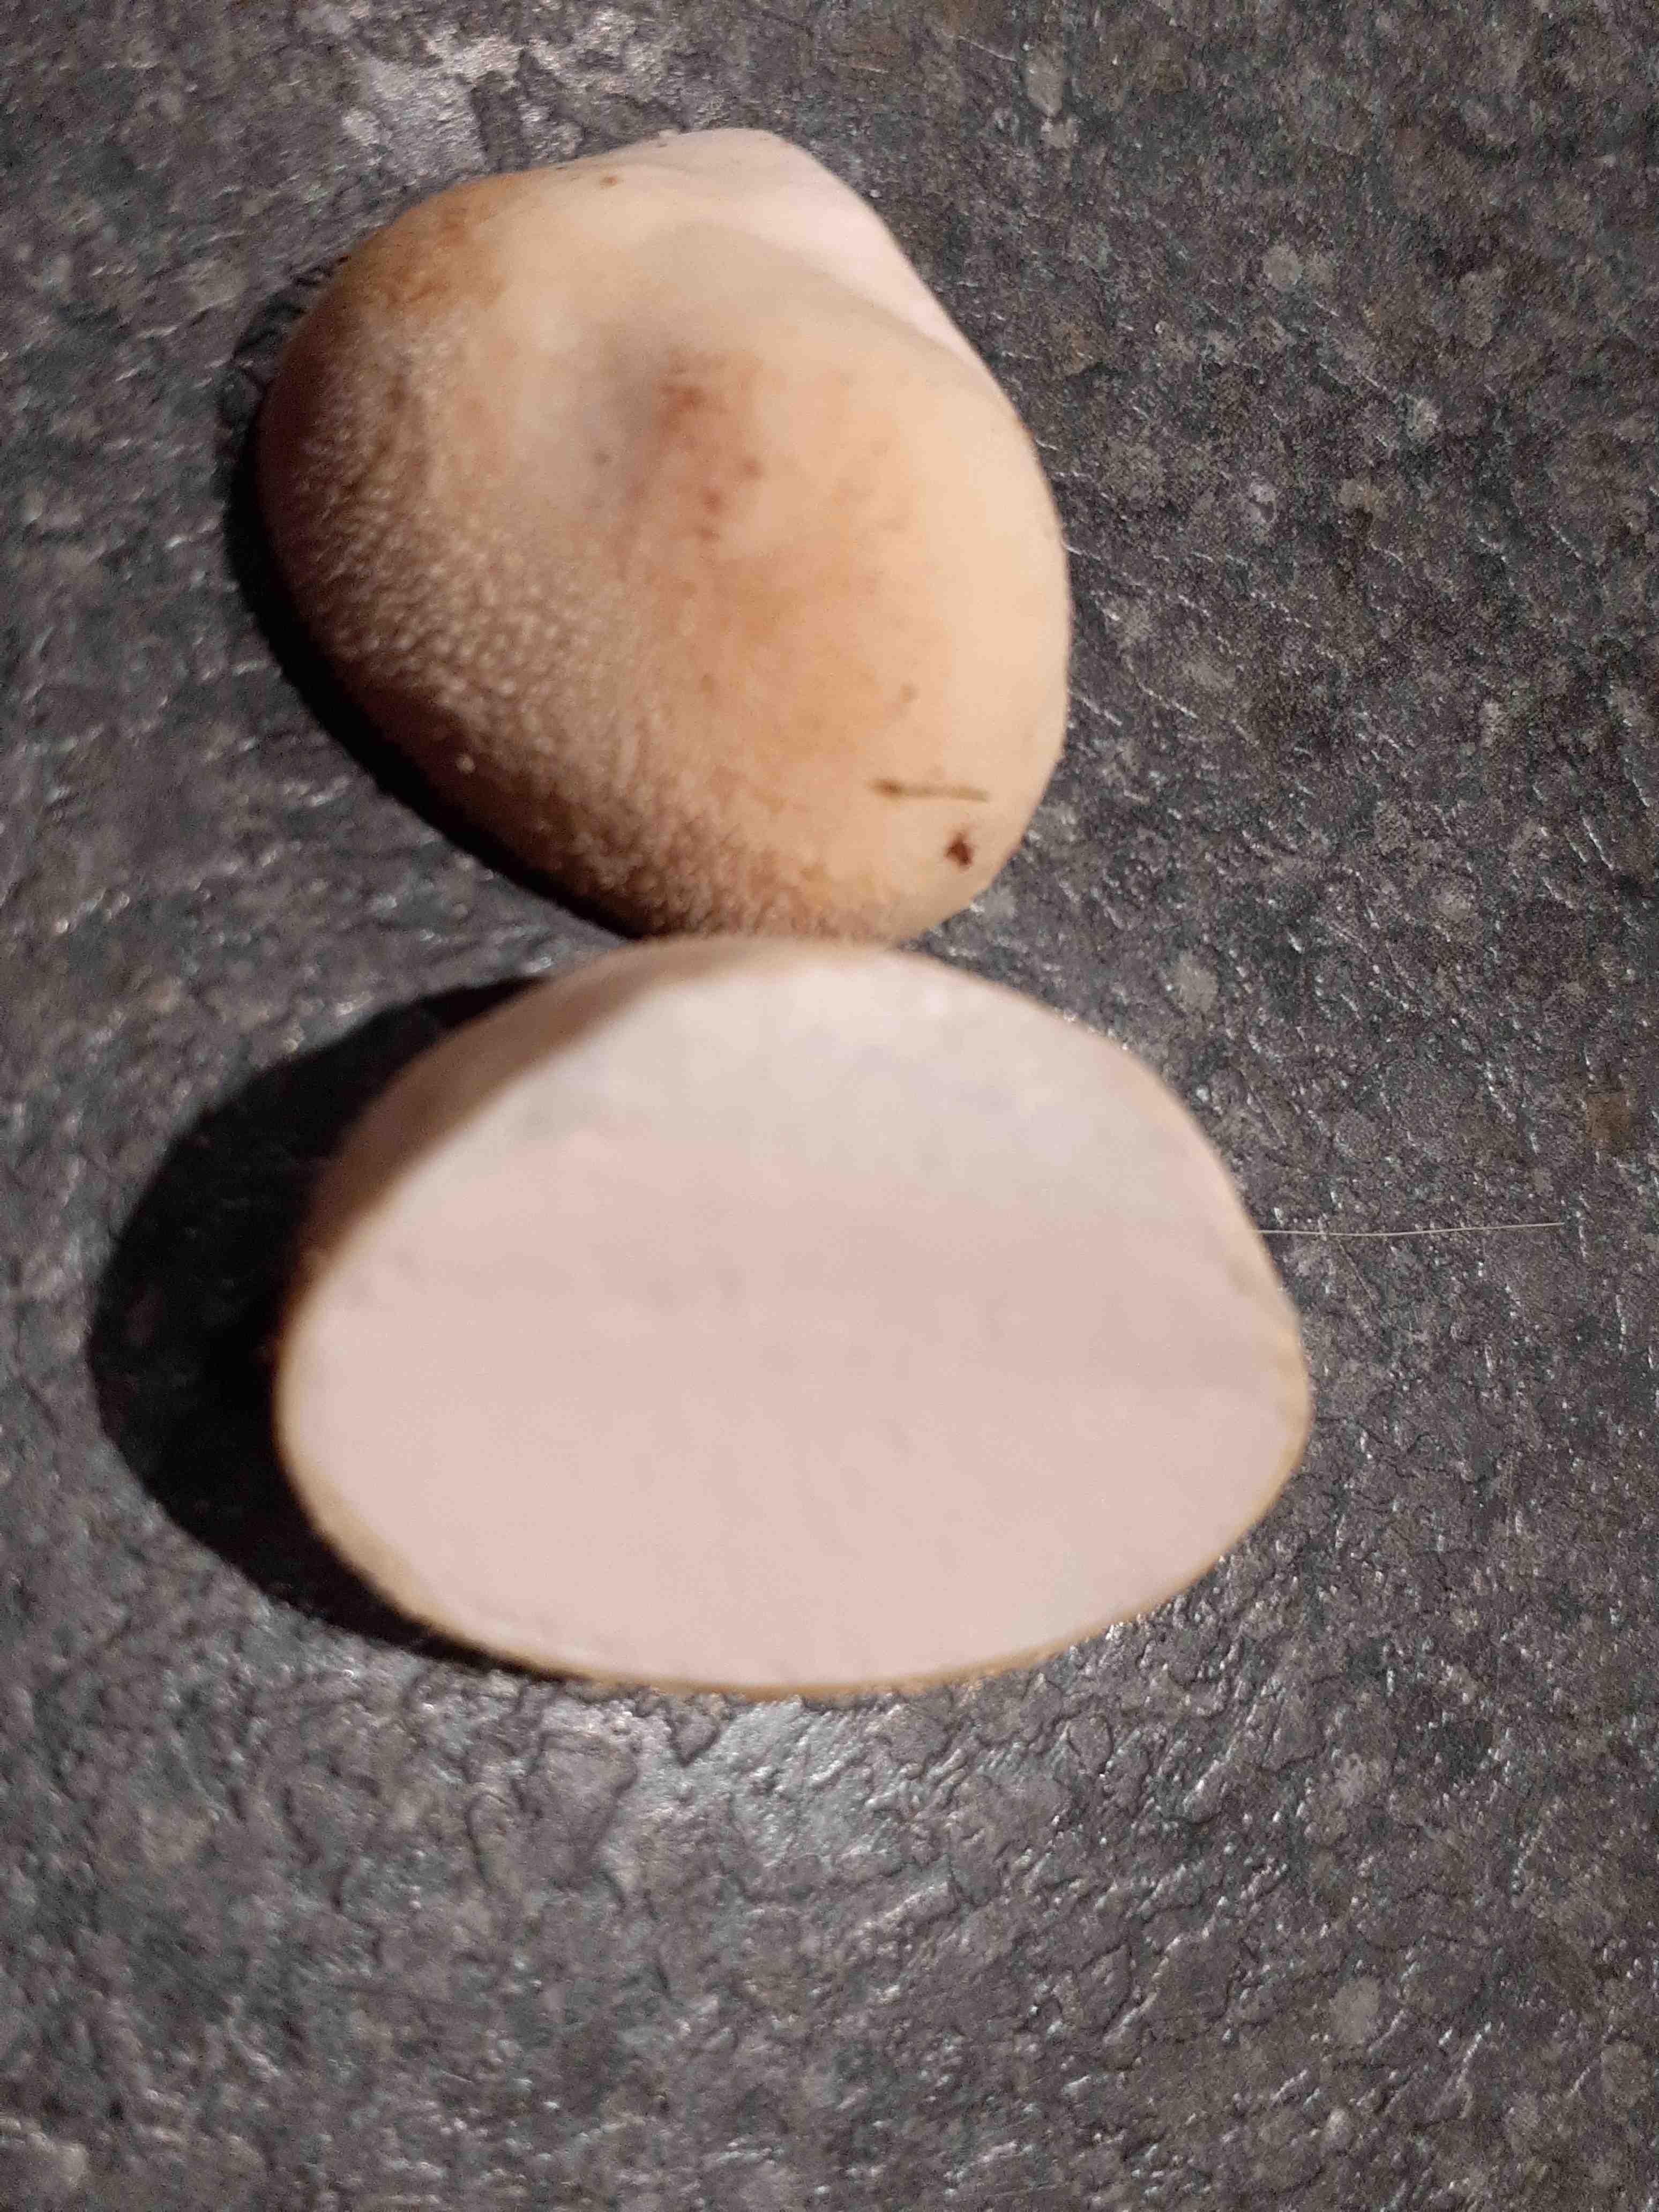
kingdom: Fungi
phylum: Basidiomycota
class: Agaricomycetes
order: Agaricales
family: Lycoperdaceae
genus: Lycoperdon
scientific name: Lycoperdon pratense
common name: flad støvbold
